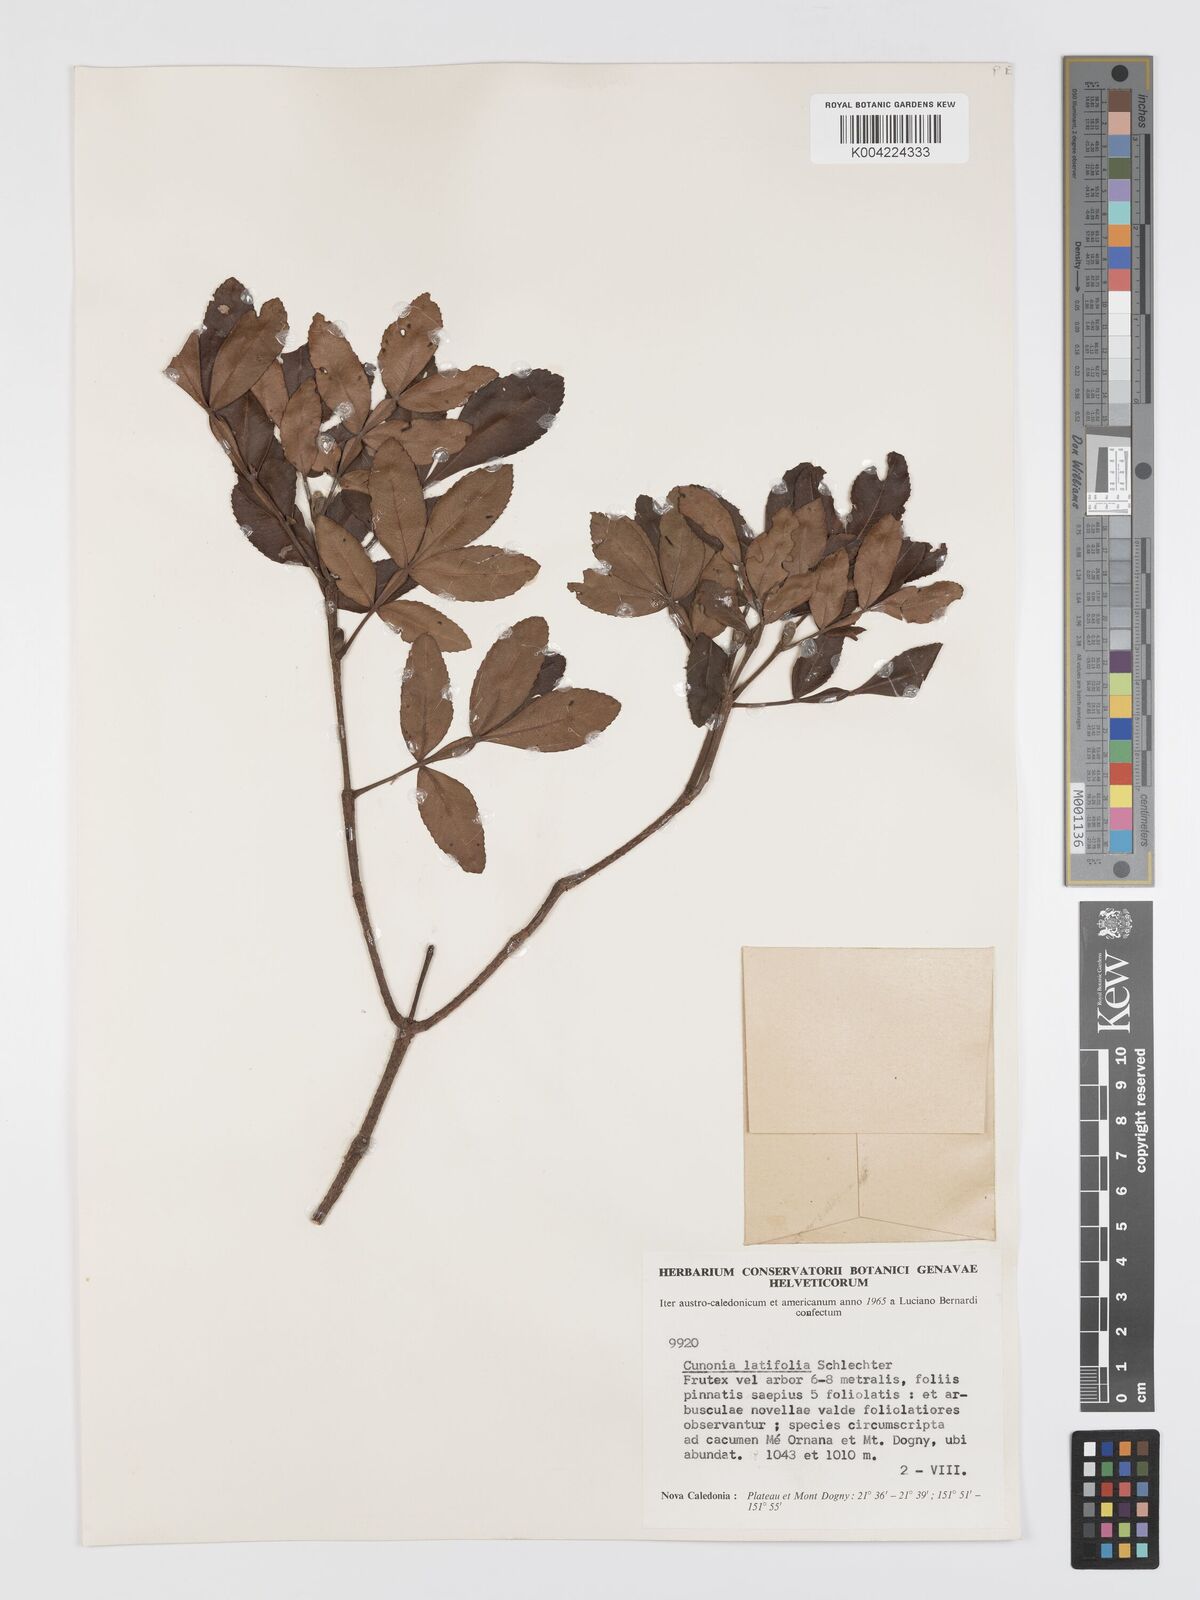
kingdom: Plantae
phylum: Tracheophyta
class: Magnoliopsida
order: Oxalidales
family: Cunoniaceae
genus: Cunonia
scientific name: Cunonia pulchella
